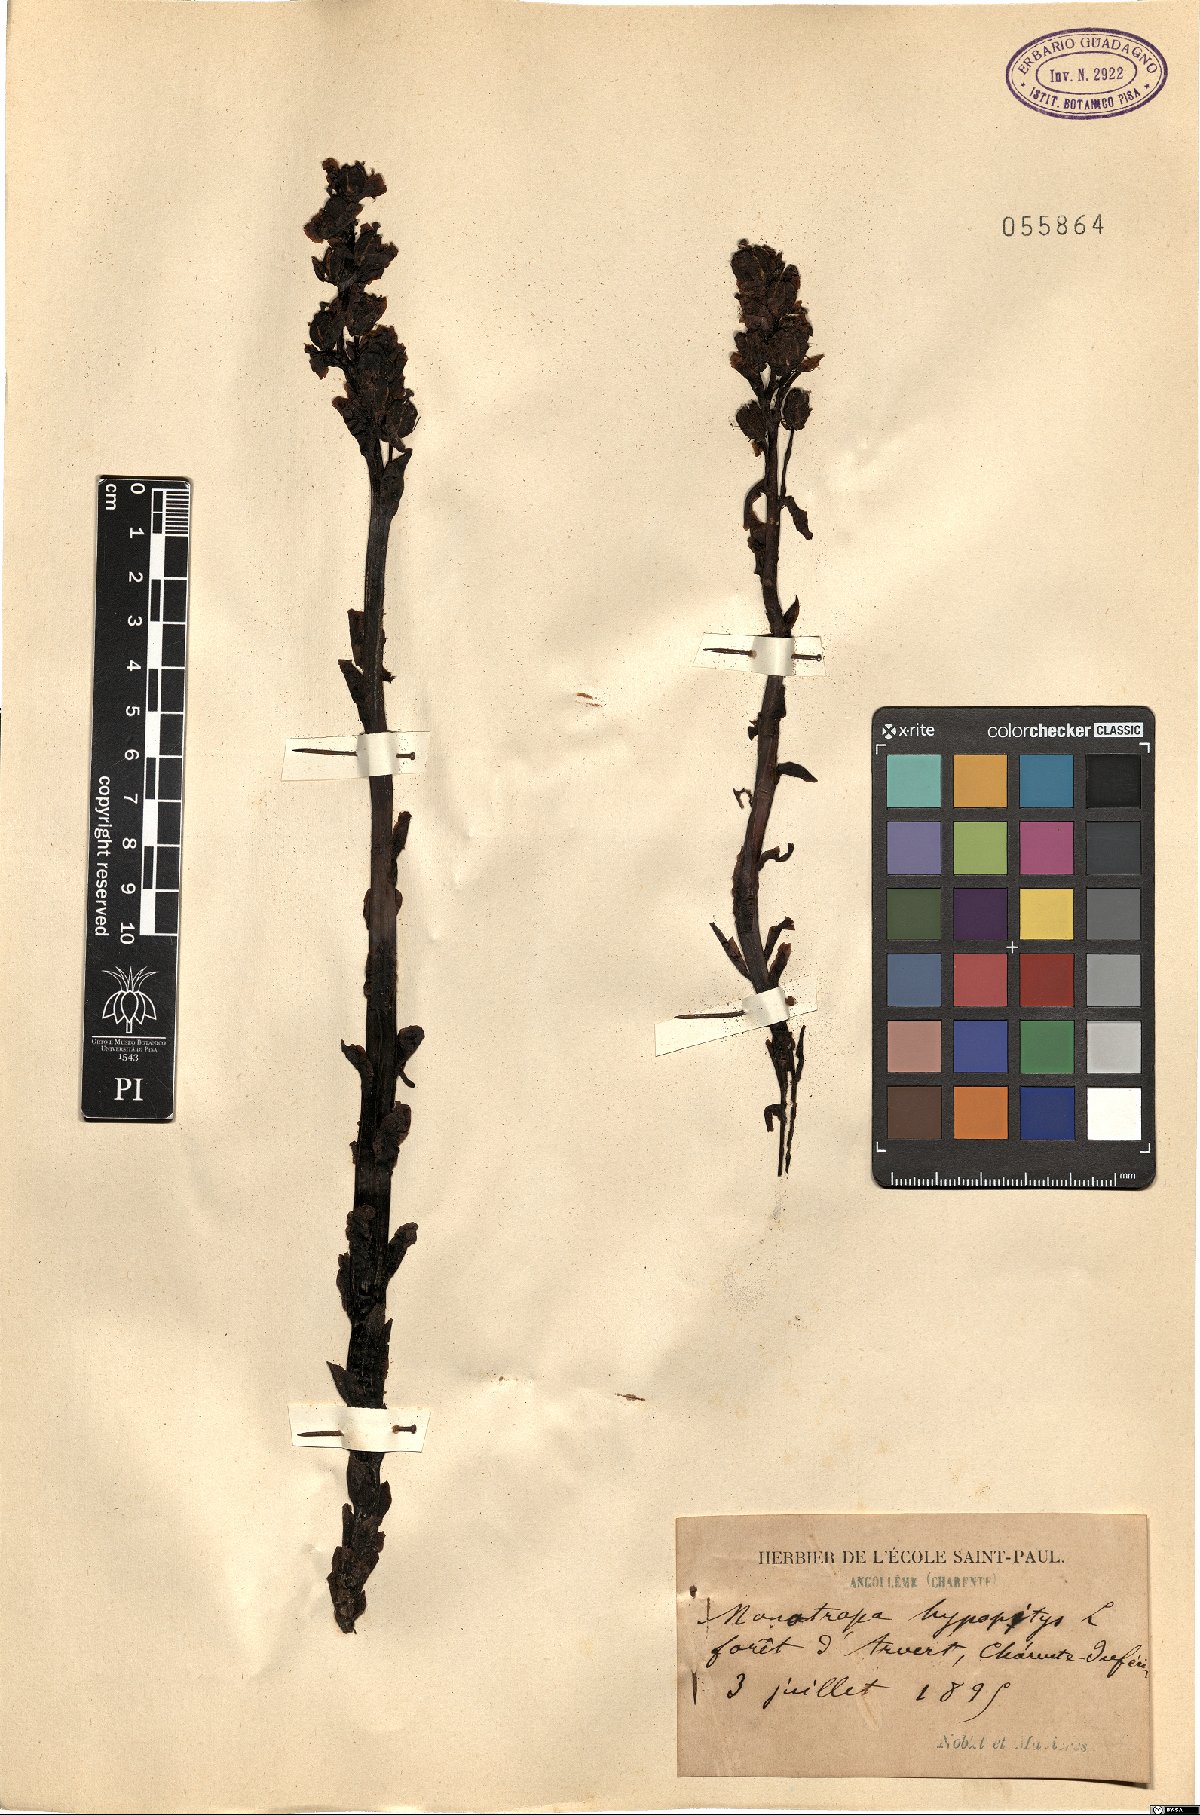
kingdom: Plantae
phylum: Tracheophyta
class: Magnoliopsida
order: Ericales
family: Ericaceae
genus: Hypopitys
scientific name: Hypopitys monotropa
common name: Yellow bird's-nest
